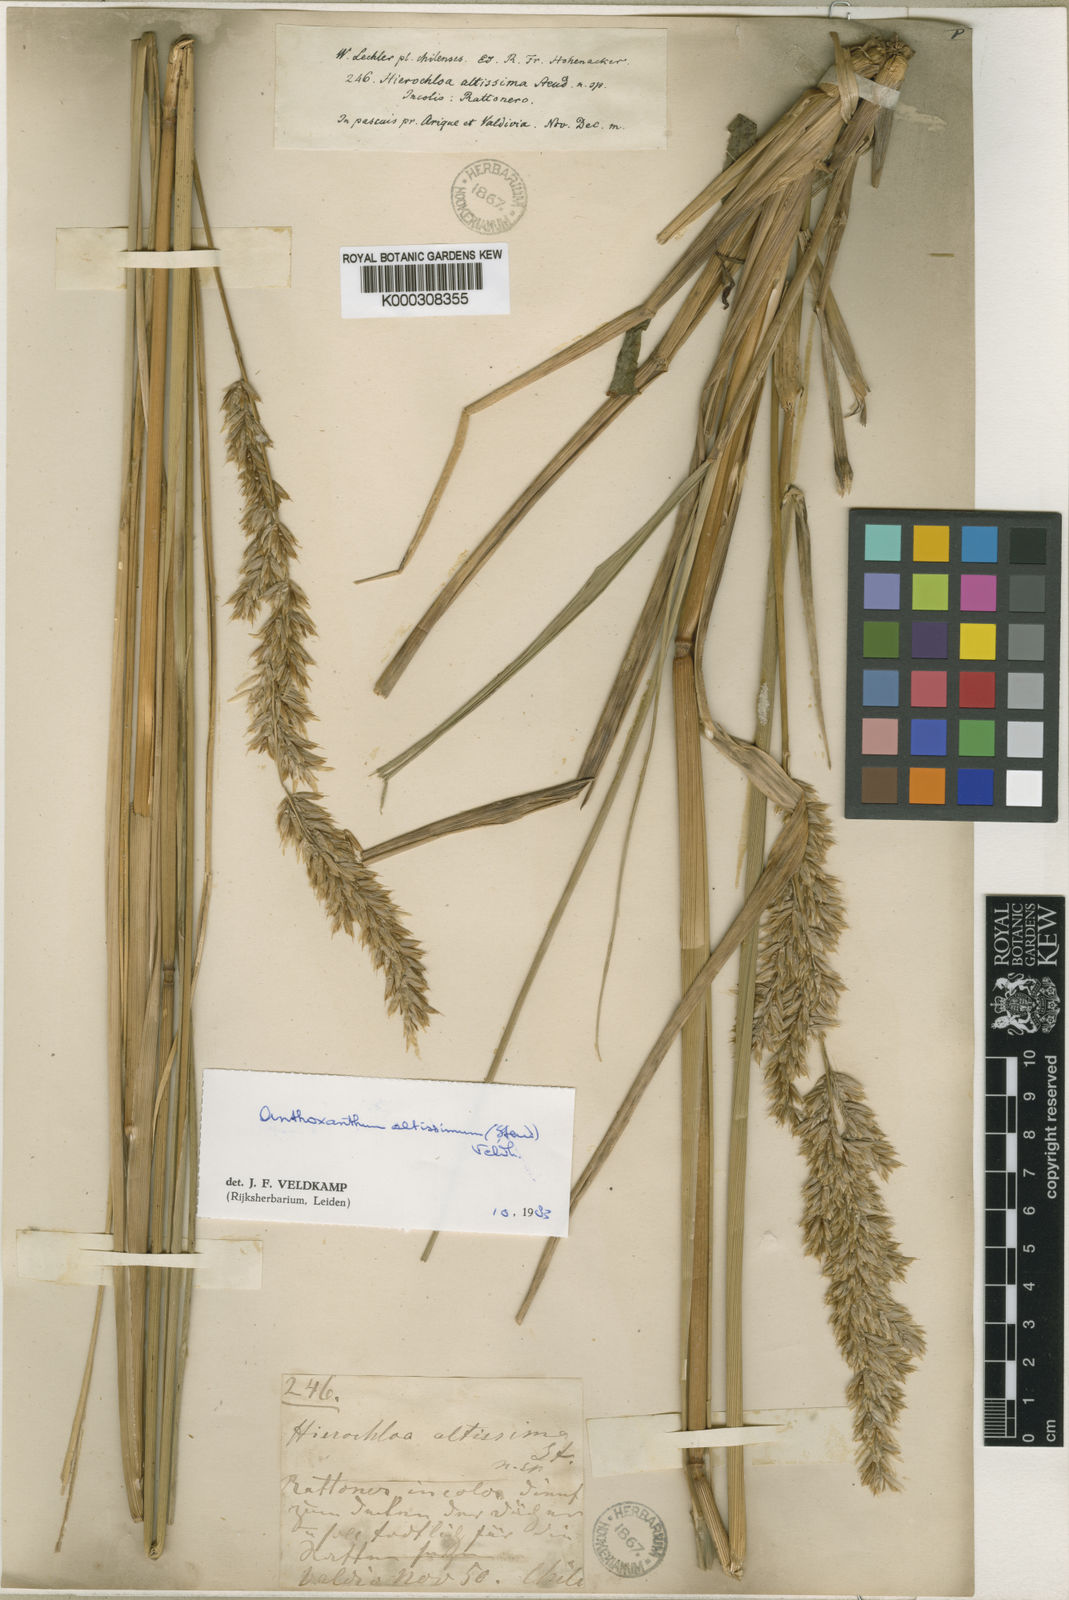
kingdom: Plantae
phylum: Tracheophyta
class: Liliopsida
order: Poales
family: Poaceae
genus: Anthoxanthum
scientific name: Anthoxanthum utriculatum
